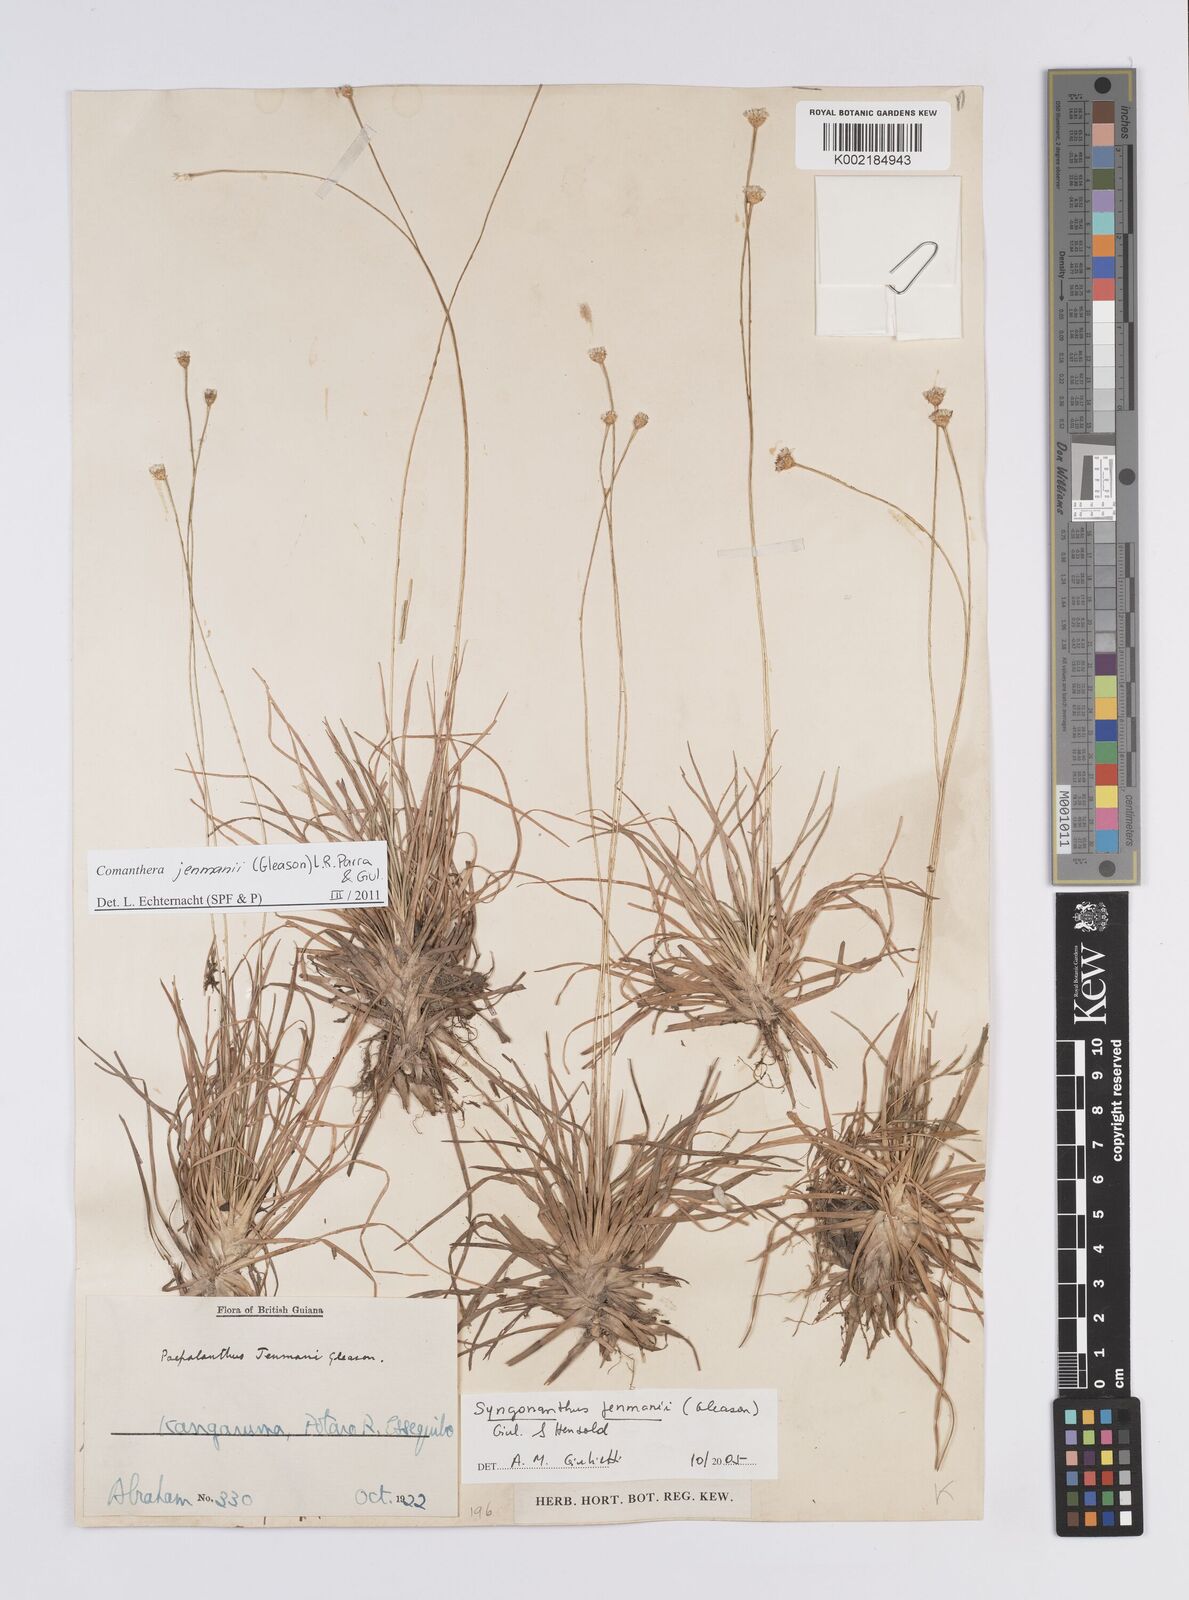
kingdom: Plantae
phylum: Tracheophyta
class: Liliopsida
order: Poales
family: Eriocaulaceae
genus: Comanthera
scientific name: Comanthera jenmanii
